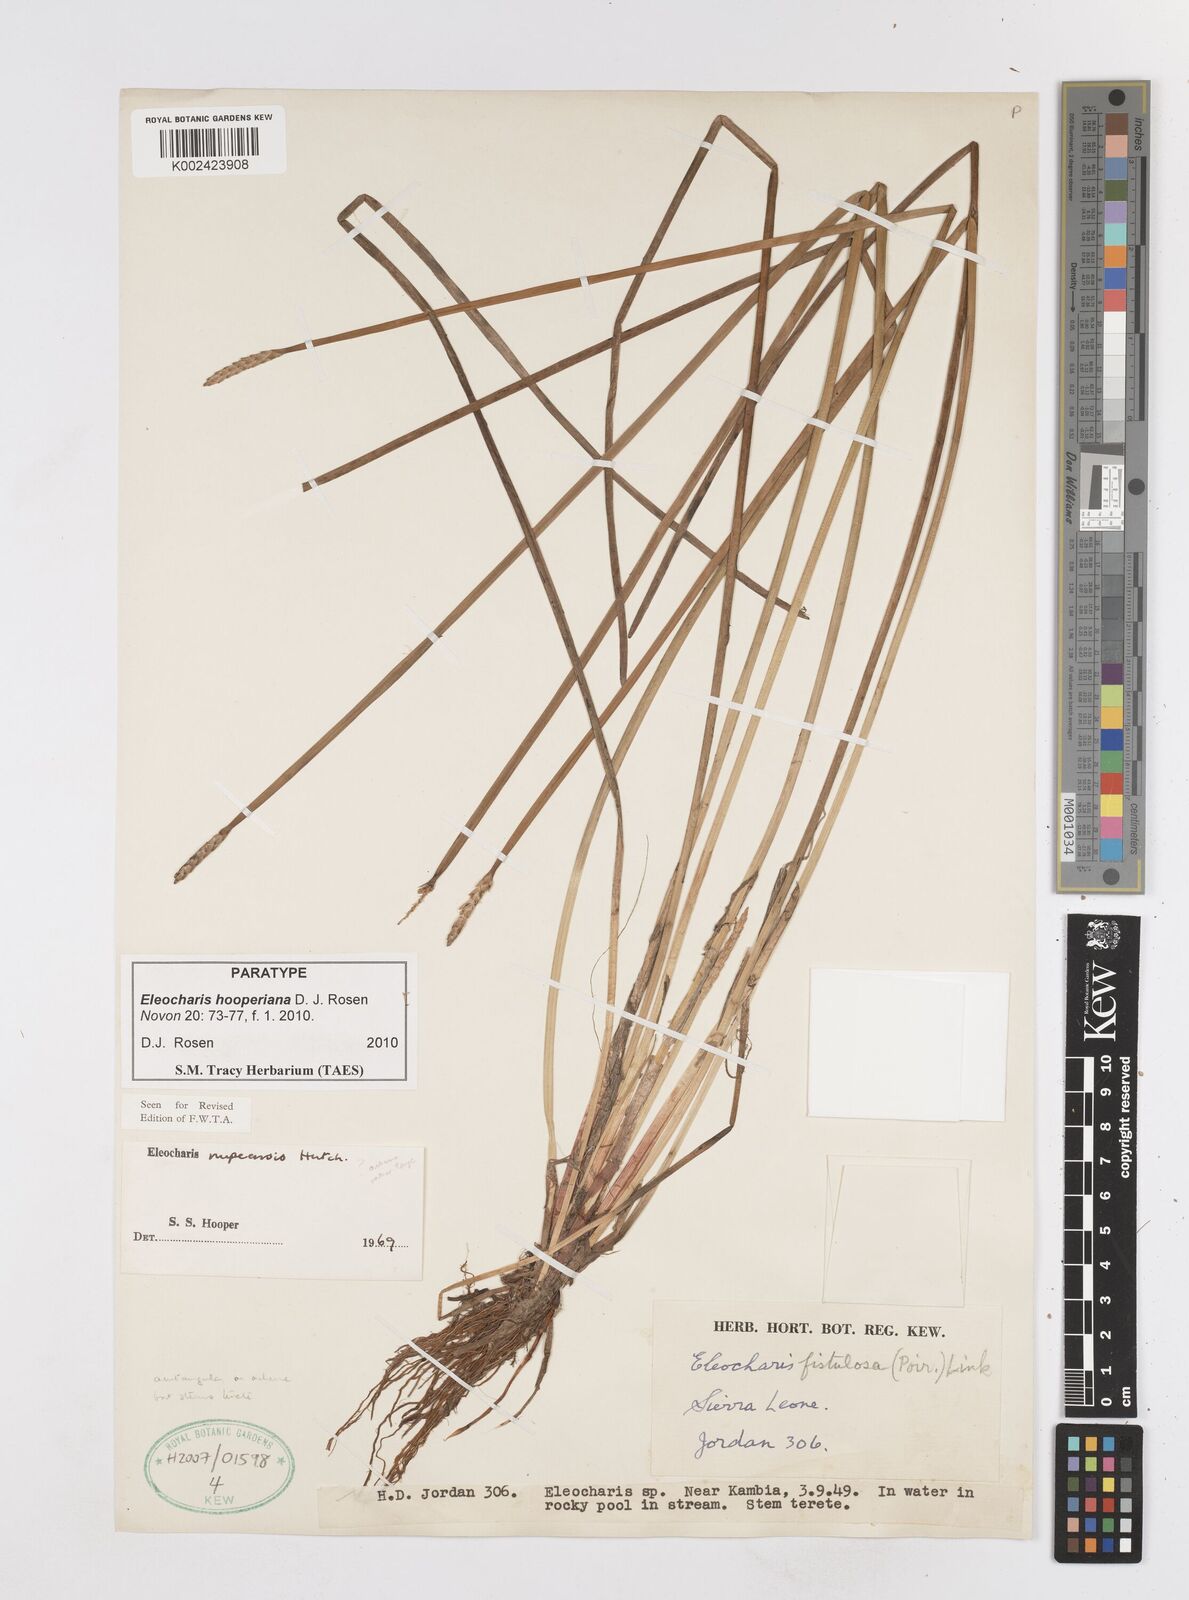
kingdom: Plantae
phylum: Tracheophyta
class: Liliopsida
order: Poales
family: Cyperaceae
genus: Eleocharis
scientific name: Eleocharis hooperiana
